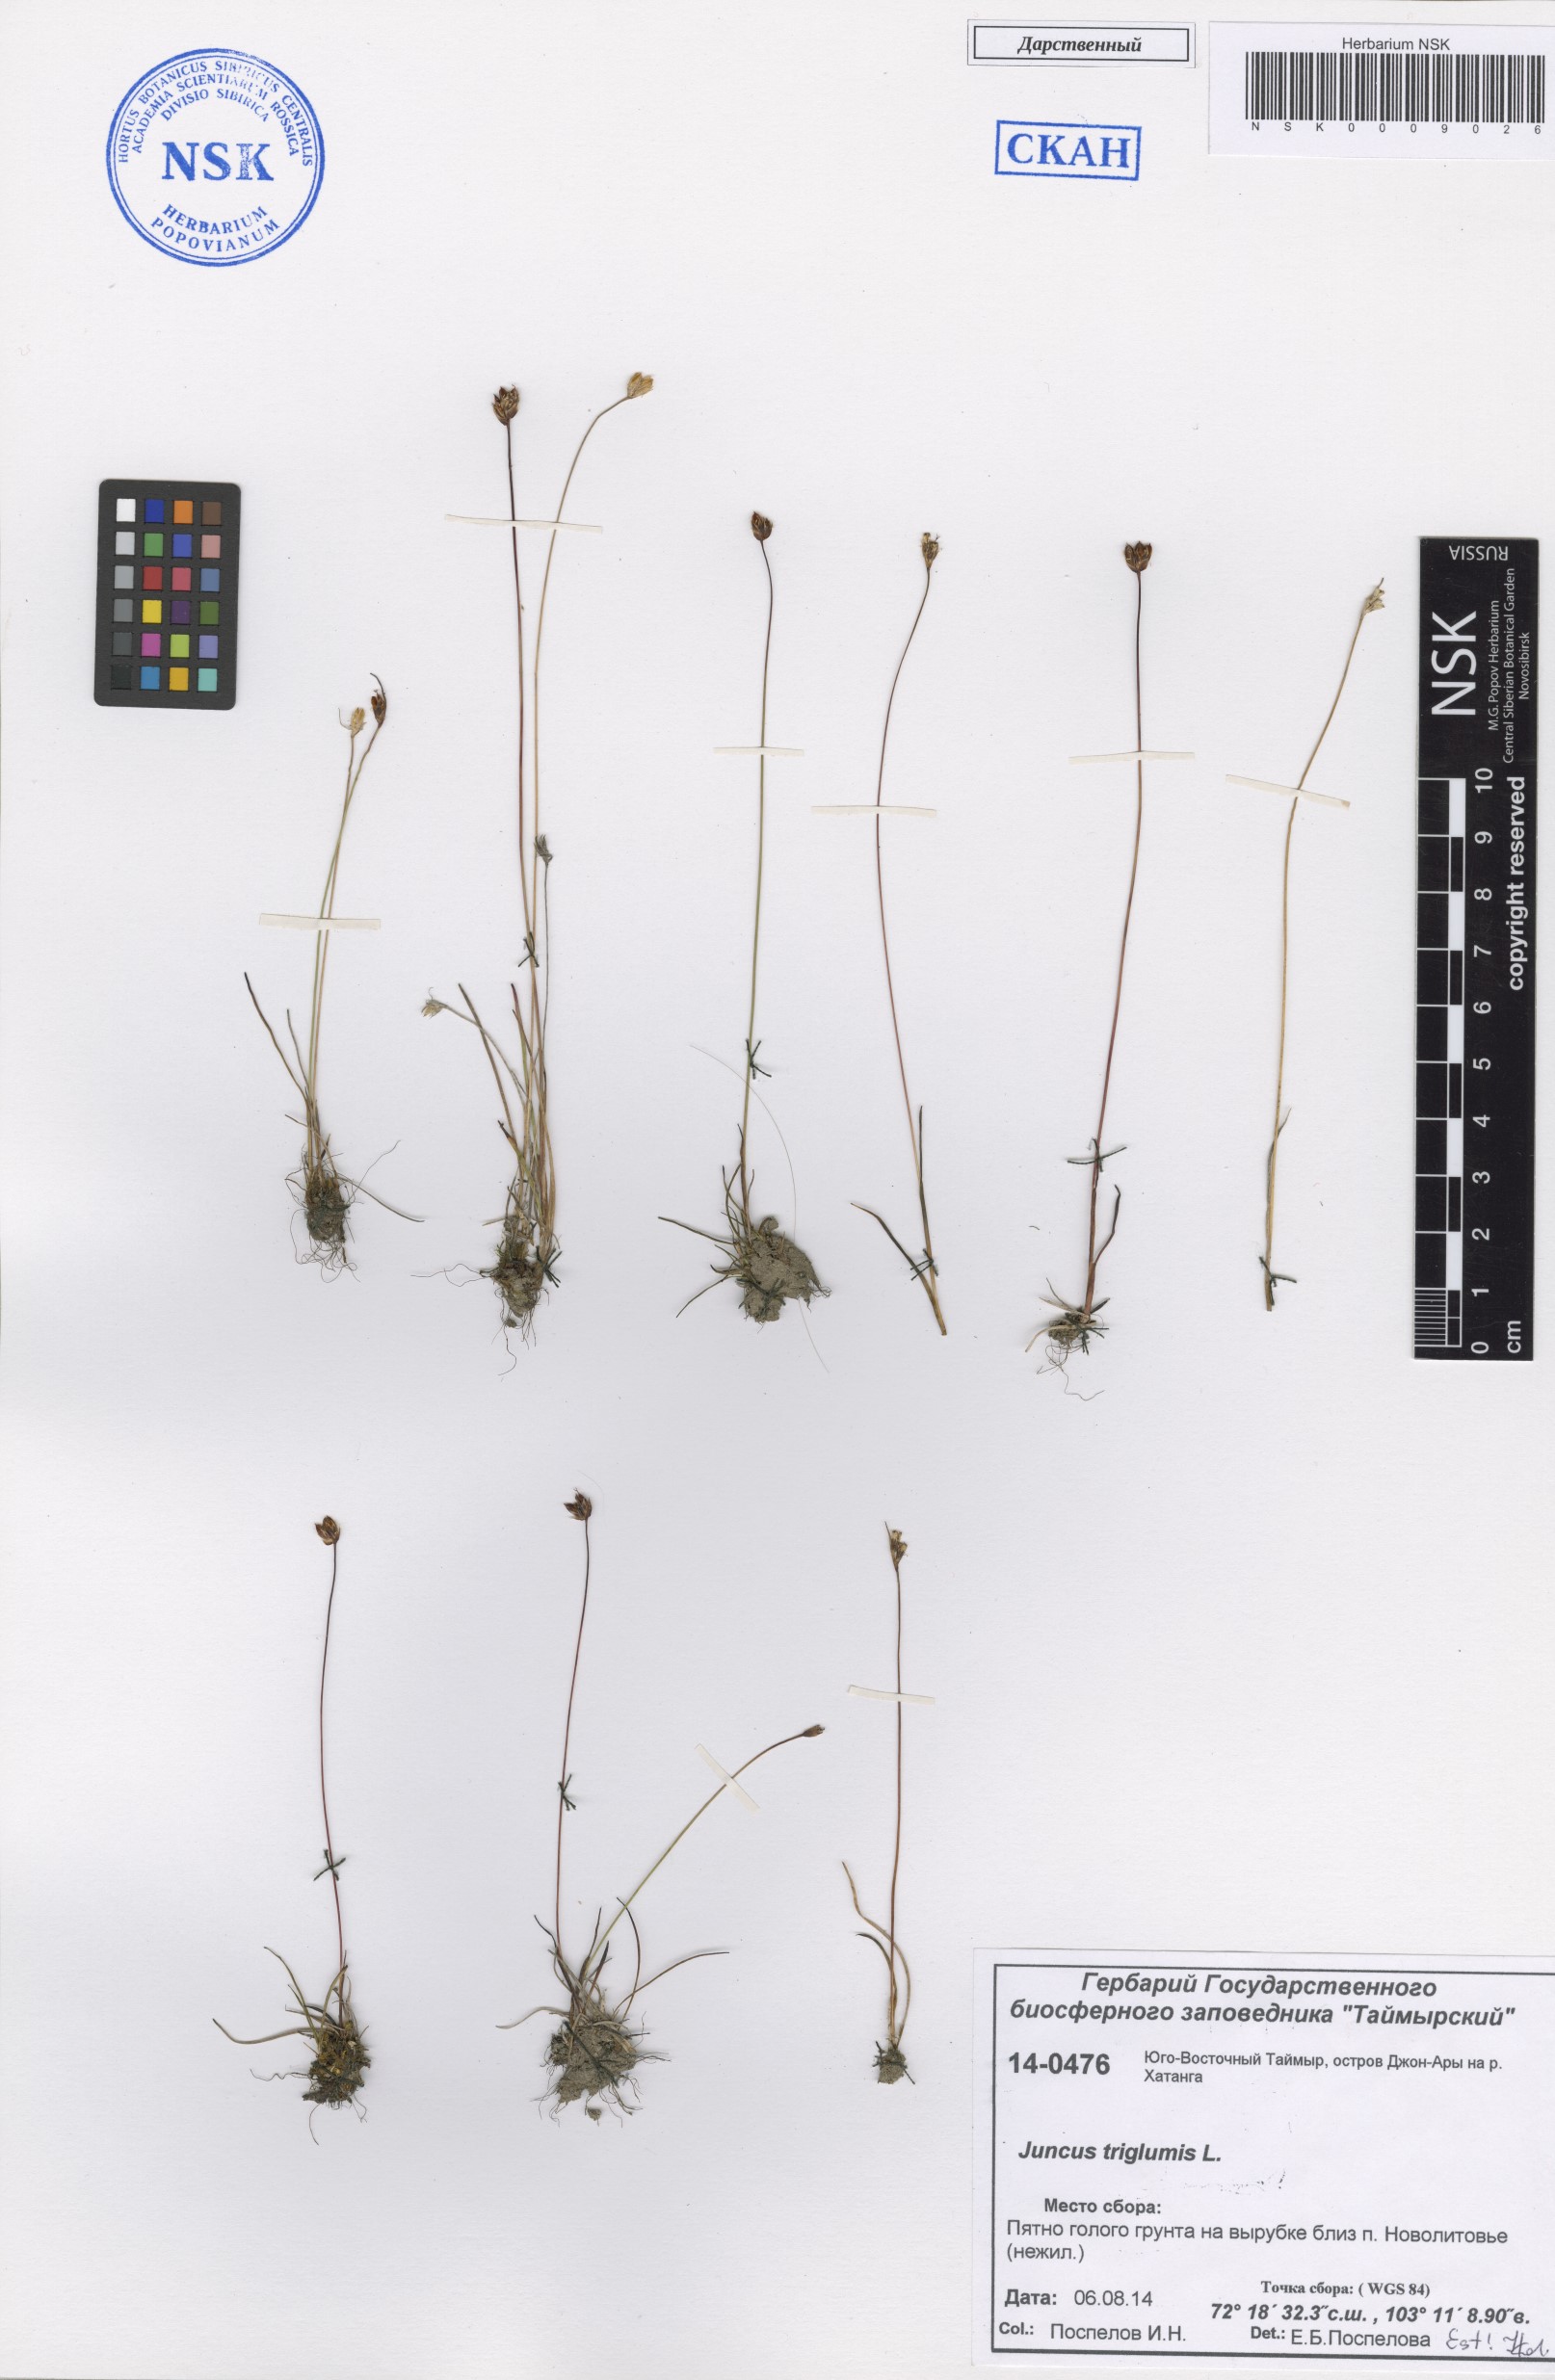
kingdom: Plantae
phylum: Tracheophyta
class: Liliopsida
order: Poales
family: Juncaceae
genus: Juncus
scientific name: Juncus triglumis
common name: Three-flowered rush
